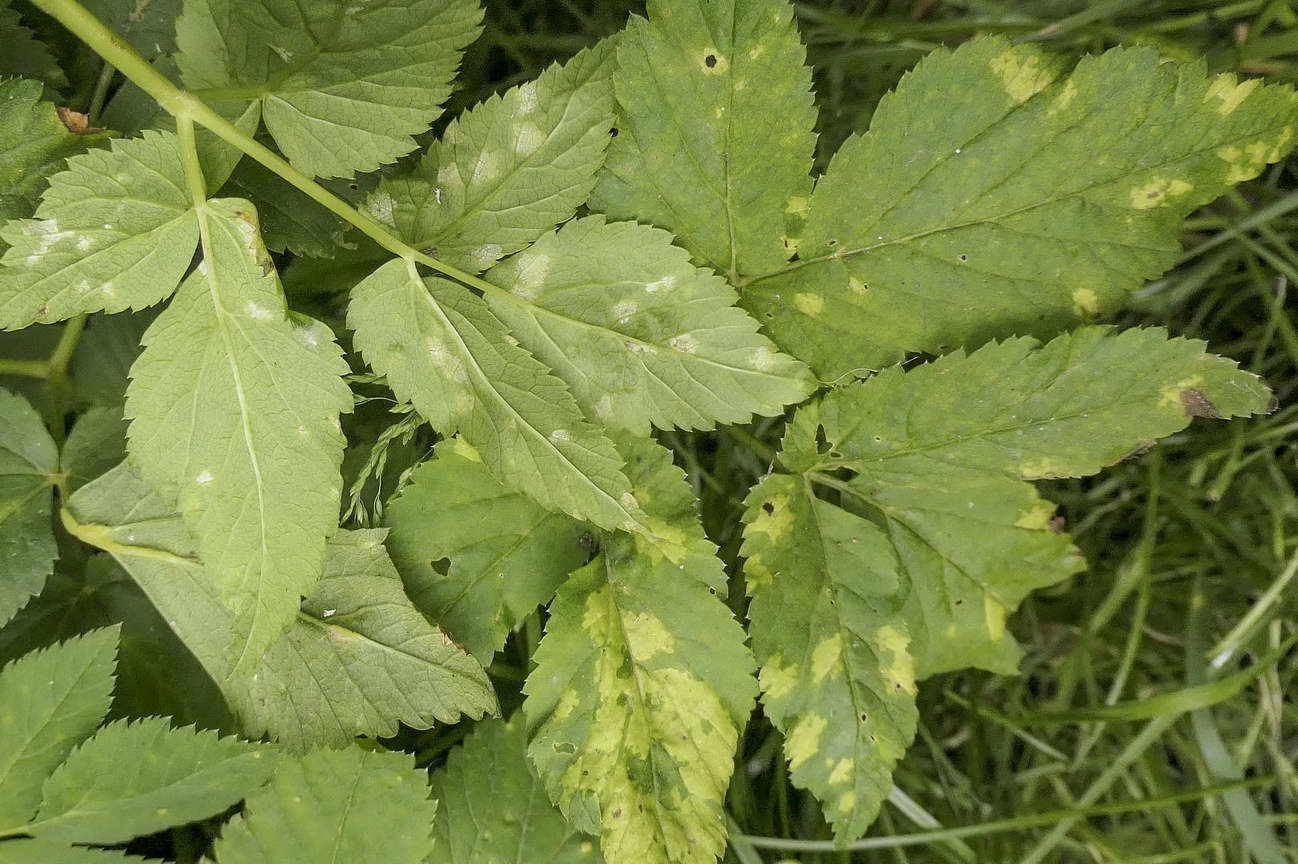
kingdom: Chromista
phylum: Oomycota
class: Peronosporea
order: Peronosporales
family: Peronosporaceae
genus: Peronospora
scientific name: Peronospora crustosa
